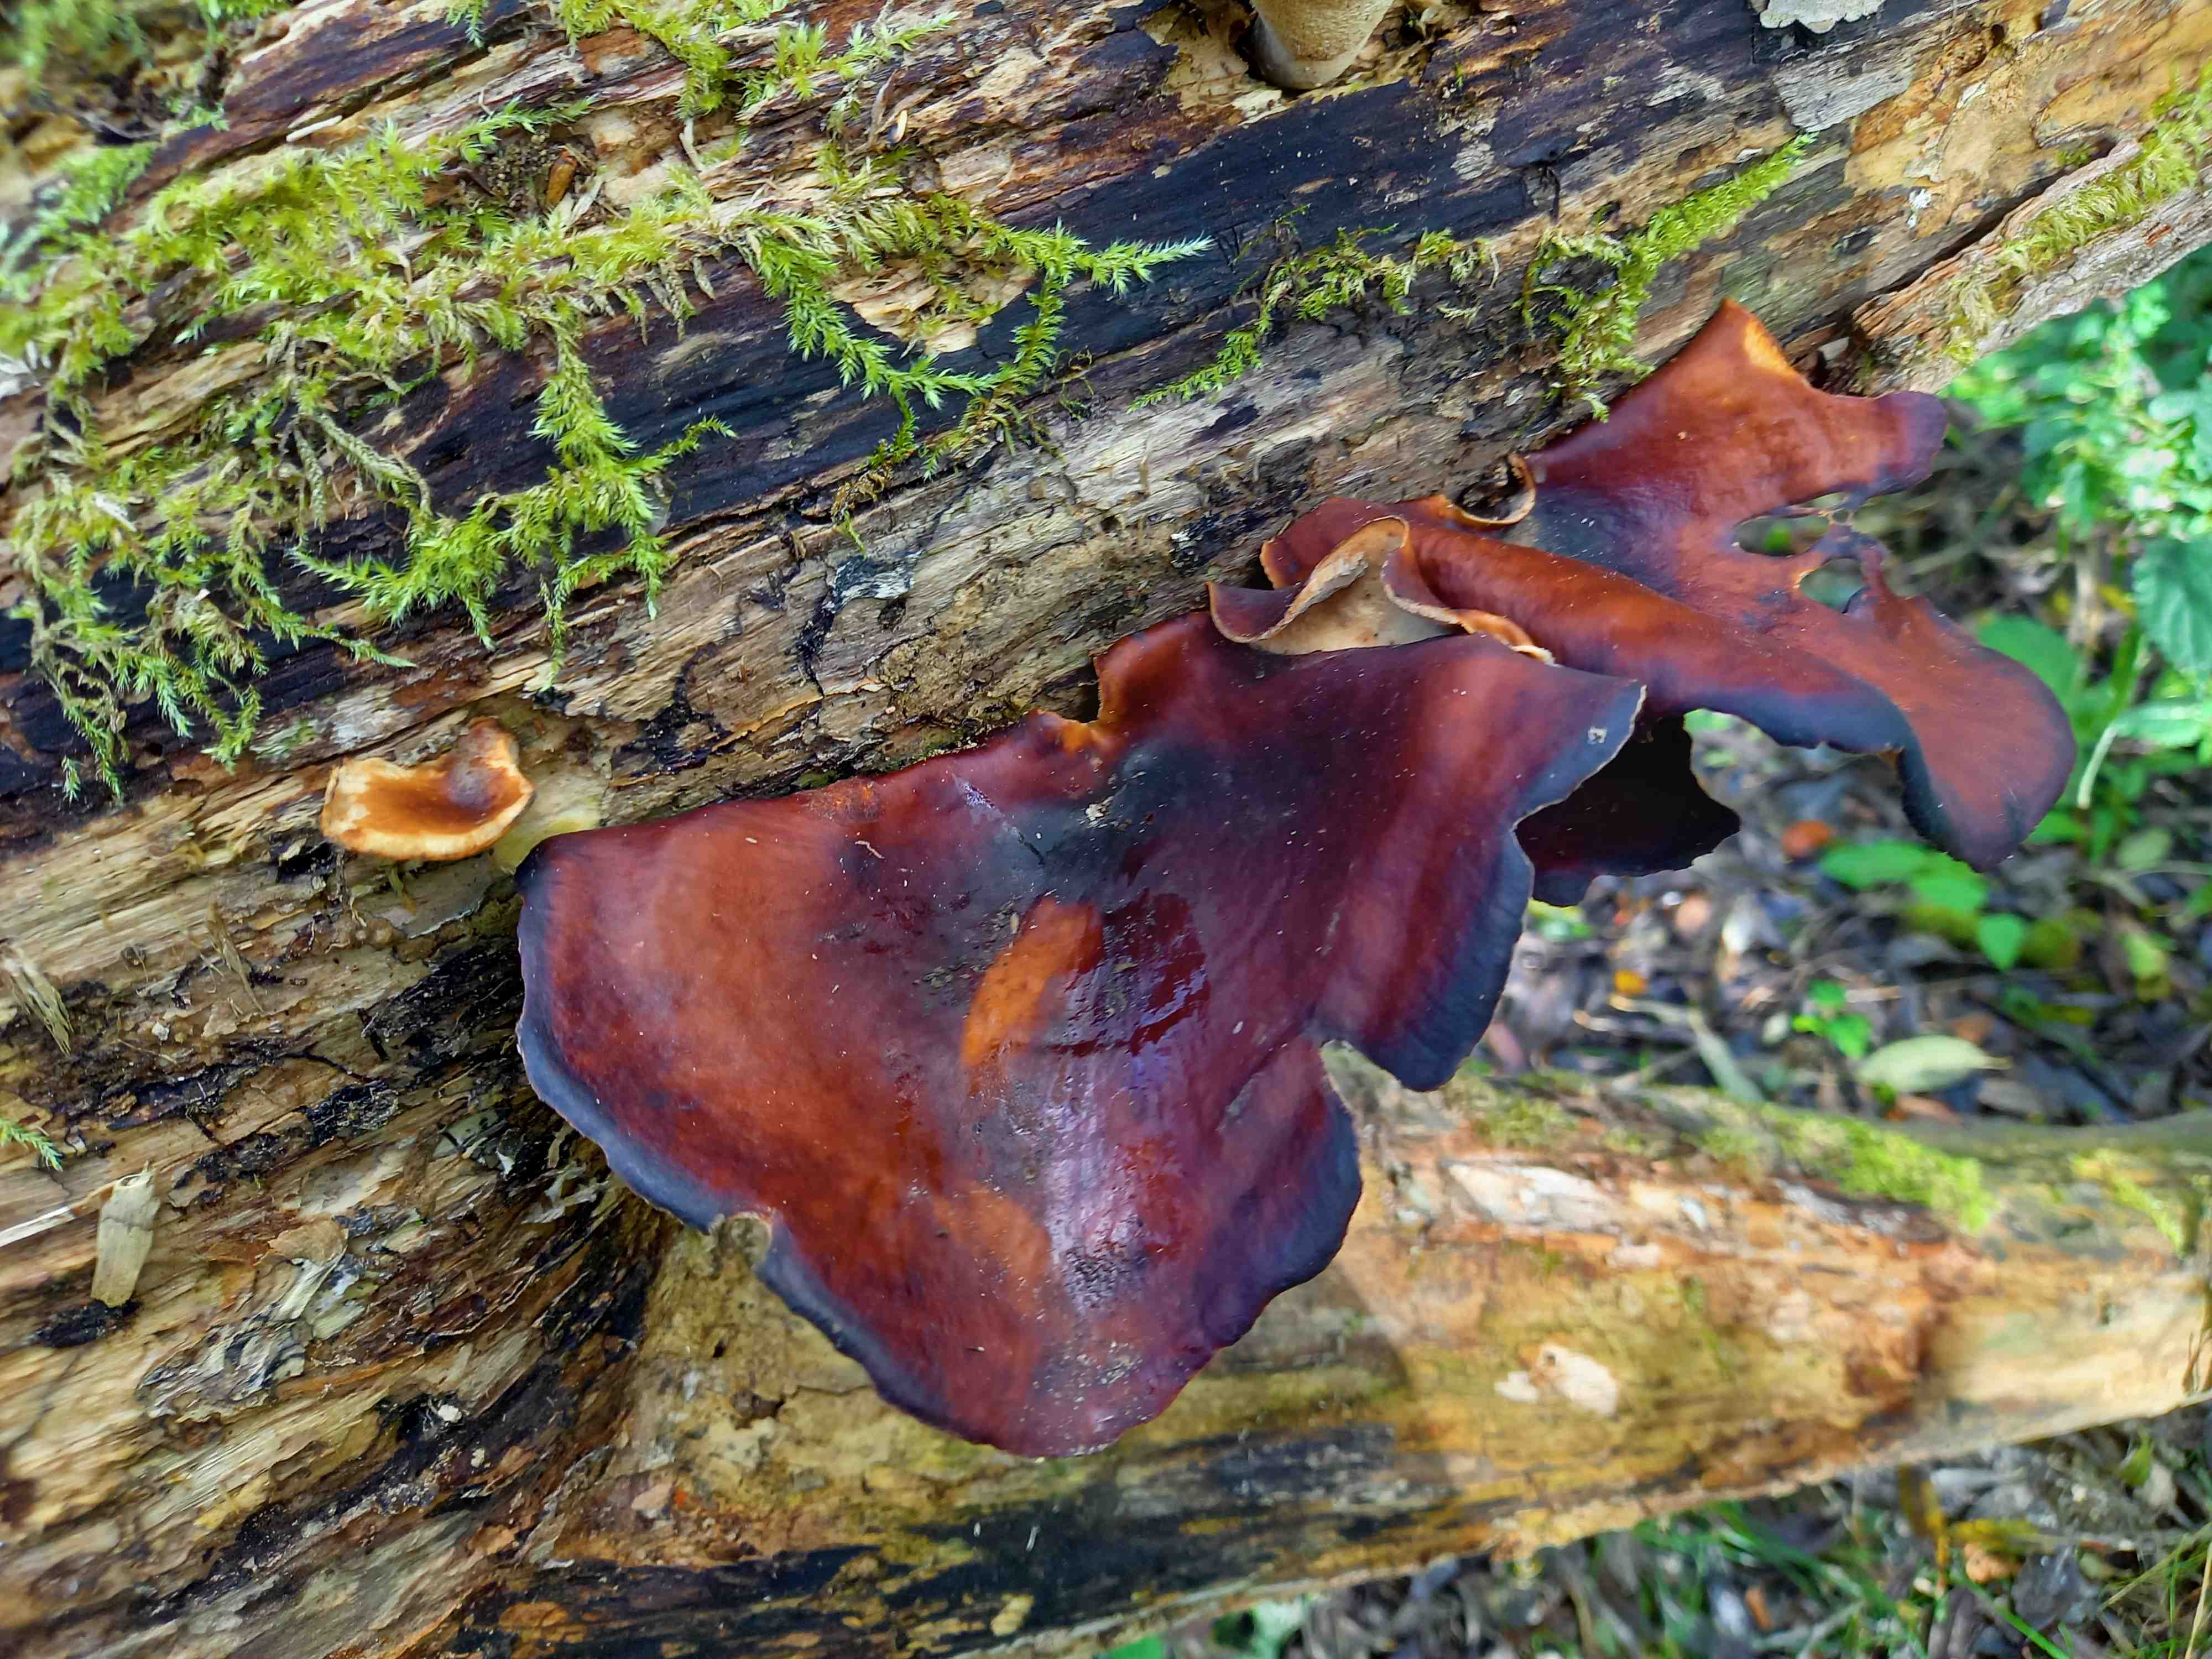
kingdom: Fungi
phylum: Basidiomycota
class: Agaricomycetes
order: Polyporales
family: Polyporaceae
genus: Picipes
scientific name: Picipes badius
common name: kastaniebrun stilkporesvamp
